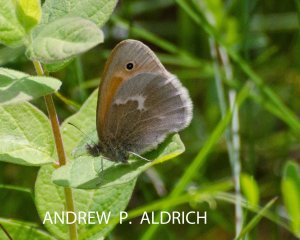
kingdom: Animalia
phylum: Arthropoda
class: Insecta
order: Lepidoptera
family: Nymphalidae
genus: Coenonympha
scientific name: Coenonympha tullia
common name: Large Heath
